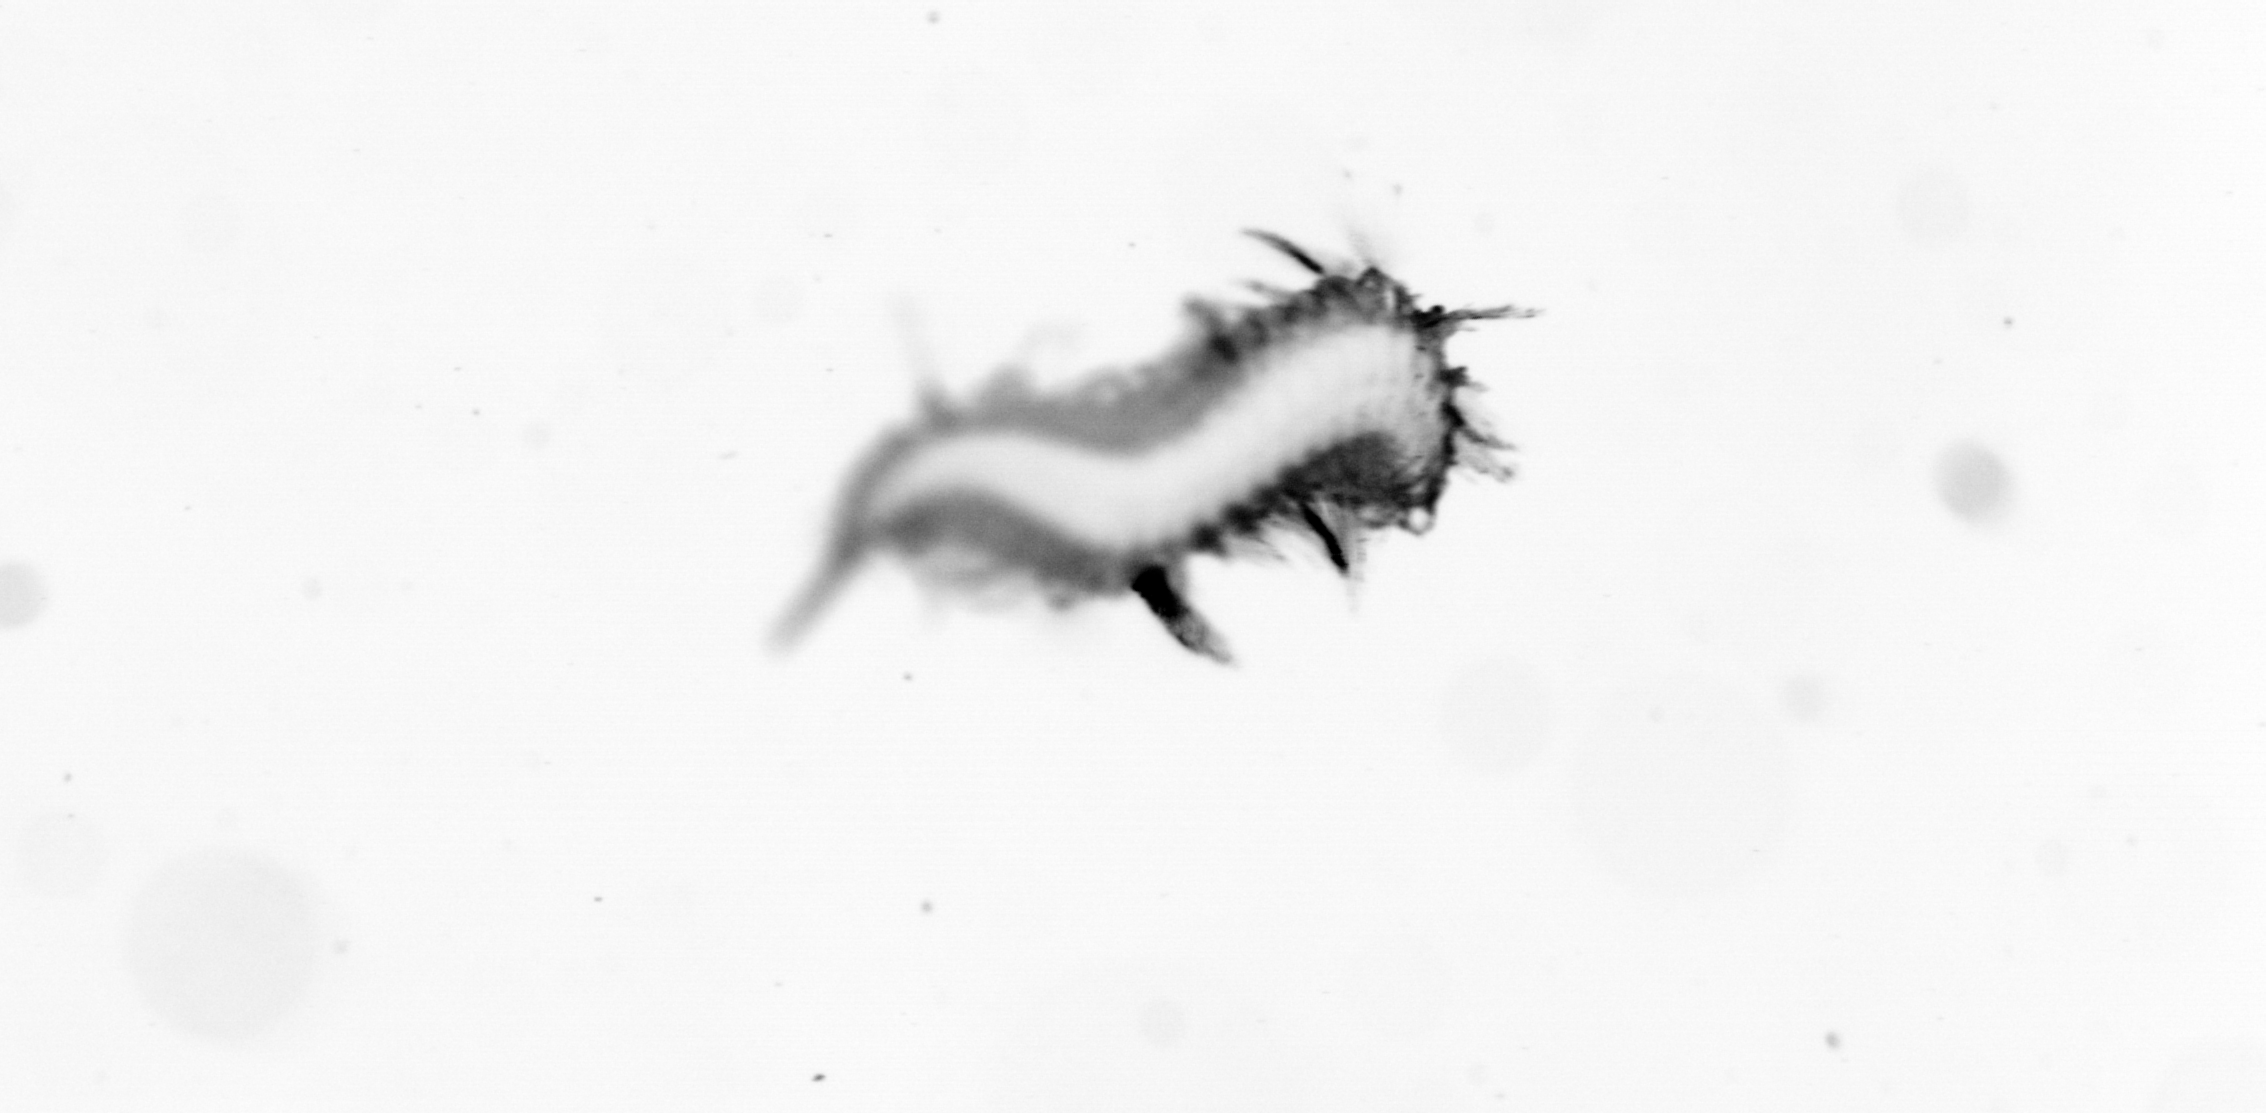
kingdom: Animalia
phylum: Annelida
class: Polychaeta
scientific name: Polychaeta
